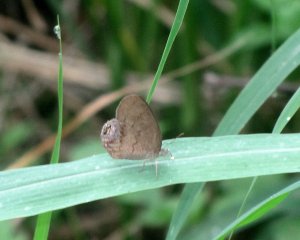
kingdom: Animalia
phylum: Arthropoda
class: Insecta
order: Lepidoptera
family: Nymphalidae
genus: Euptychia
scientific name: Euptychia cornelius
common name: Gemmed Satyr
